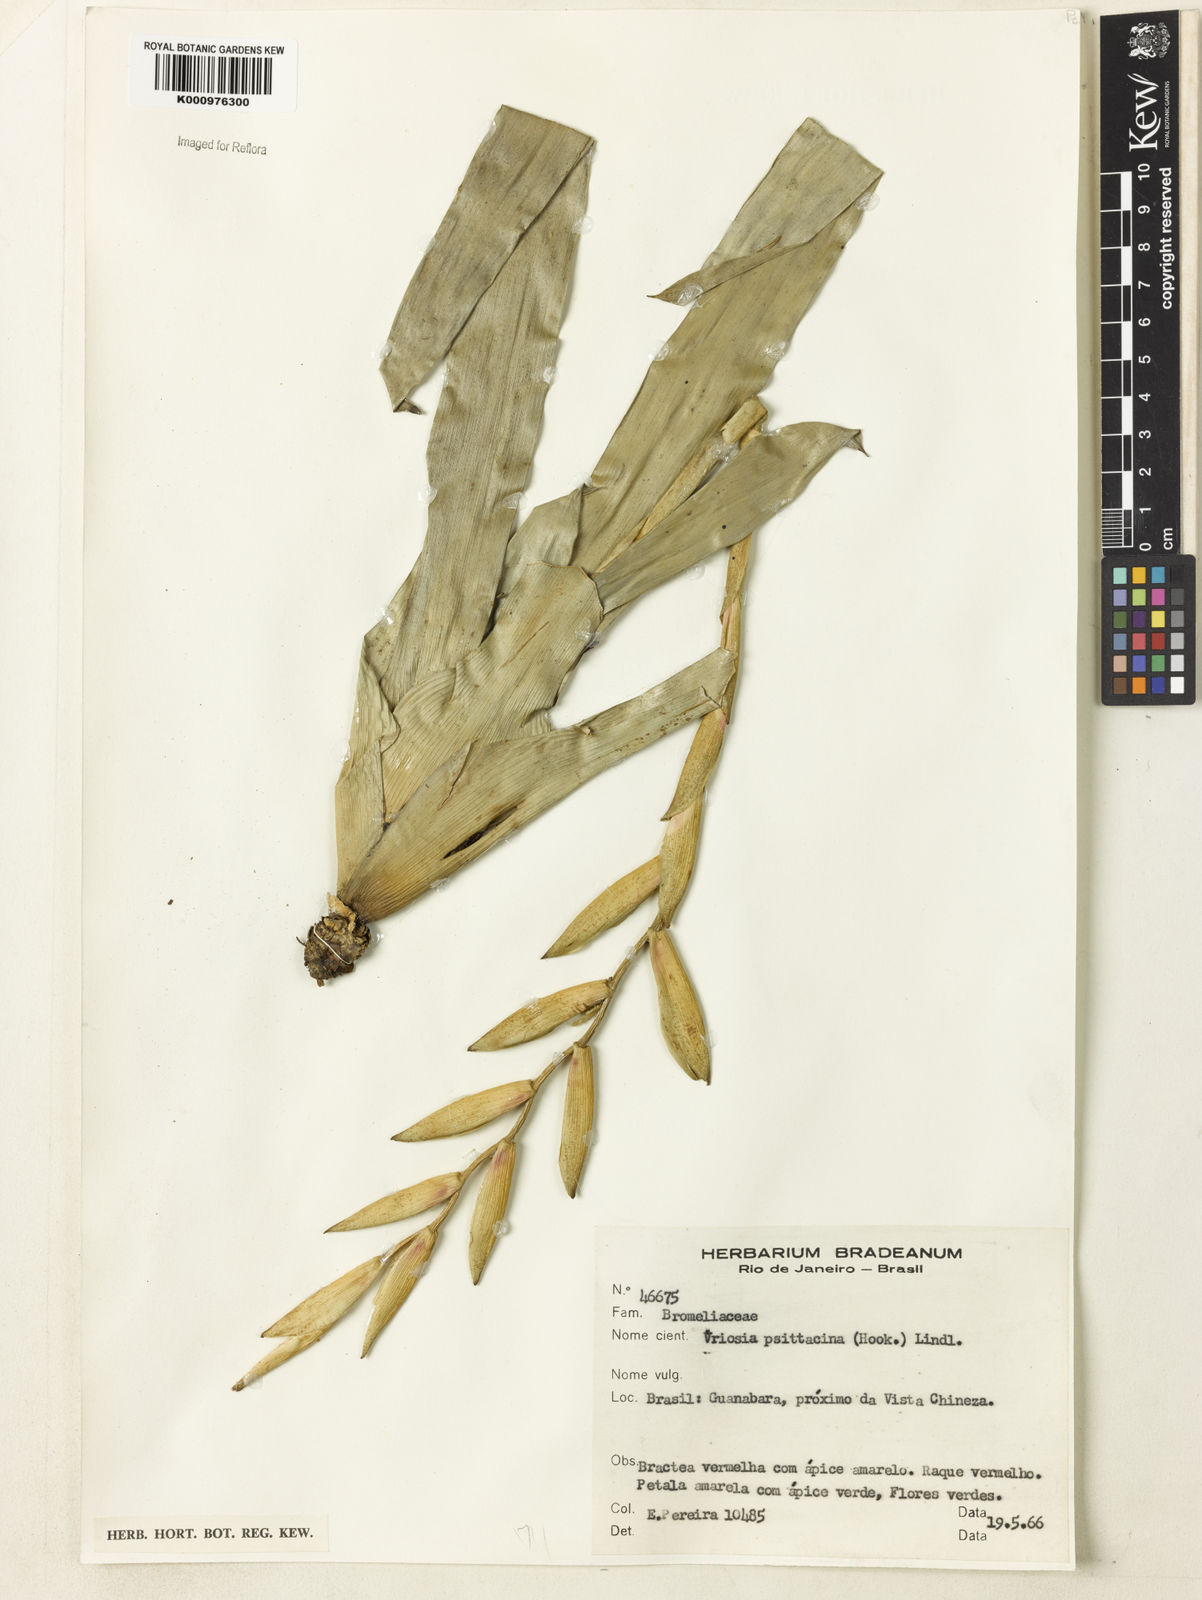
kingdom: Plantae
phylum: Tracheophyta
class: Liliopsida
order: Poales
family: Bromeliaceae
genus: Vriesea
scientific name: Vriesea psittacina
